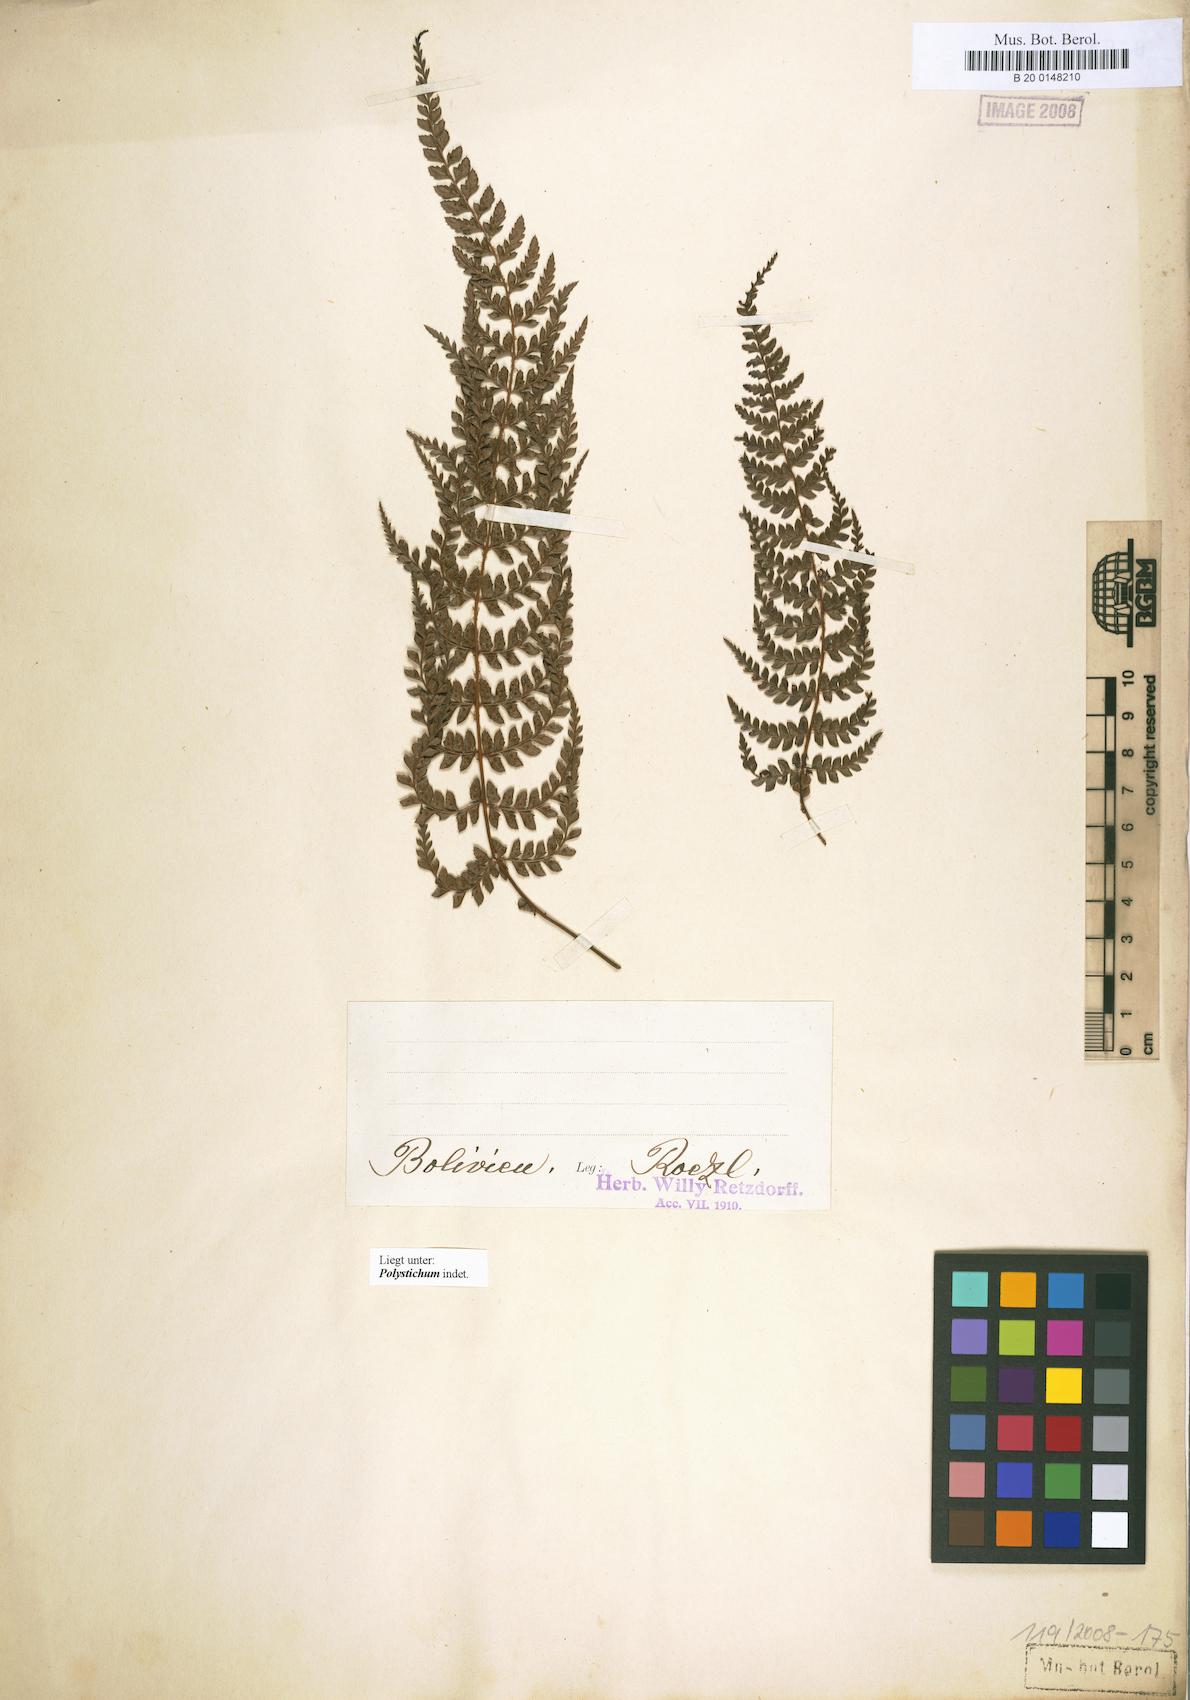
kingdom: Plantae
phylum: Tracheophyta
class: Polypodiopsida
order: Polypodiales
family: Dryopteridaceae
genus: Polystichum
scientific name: Polystichum
